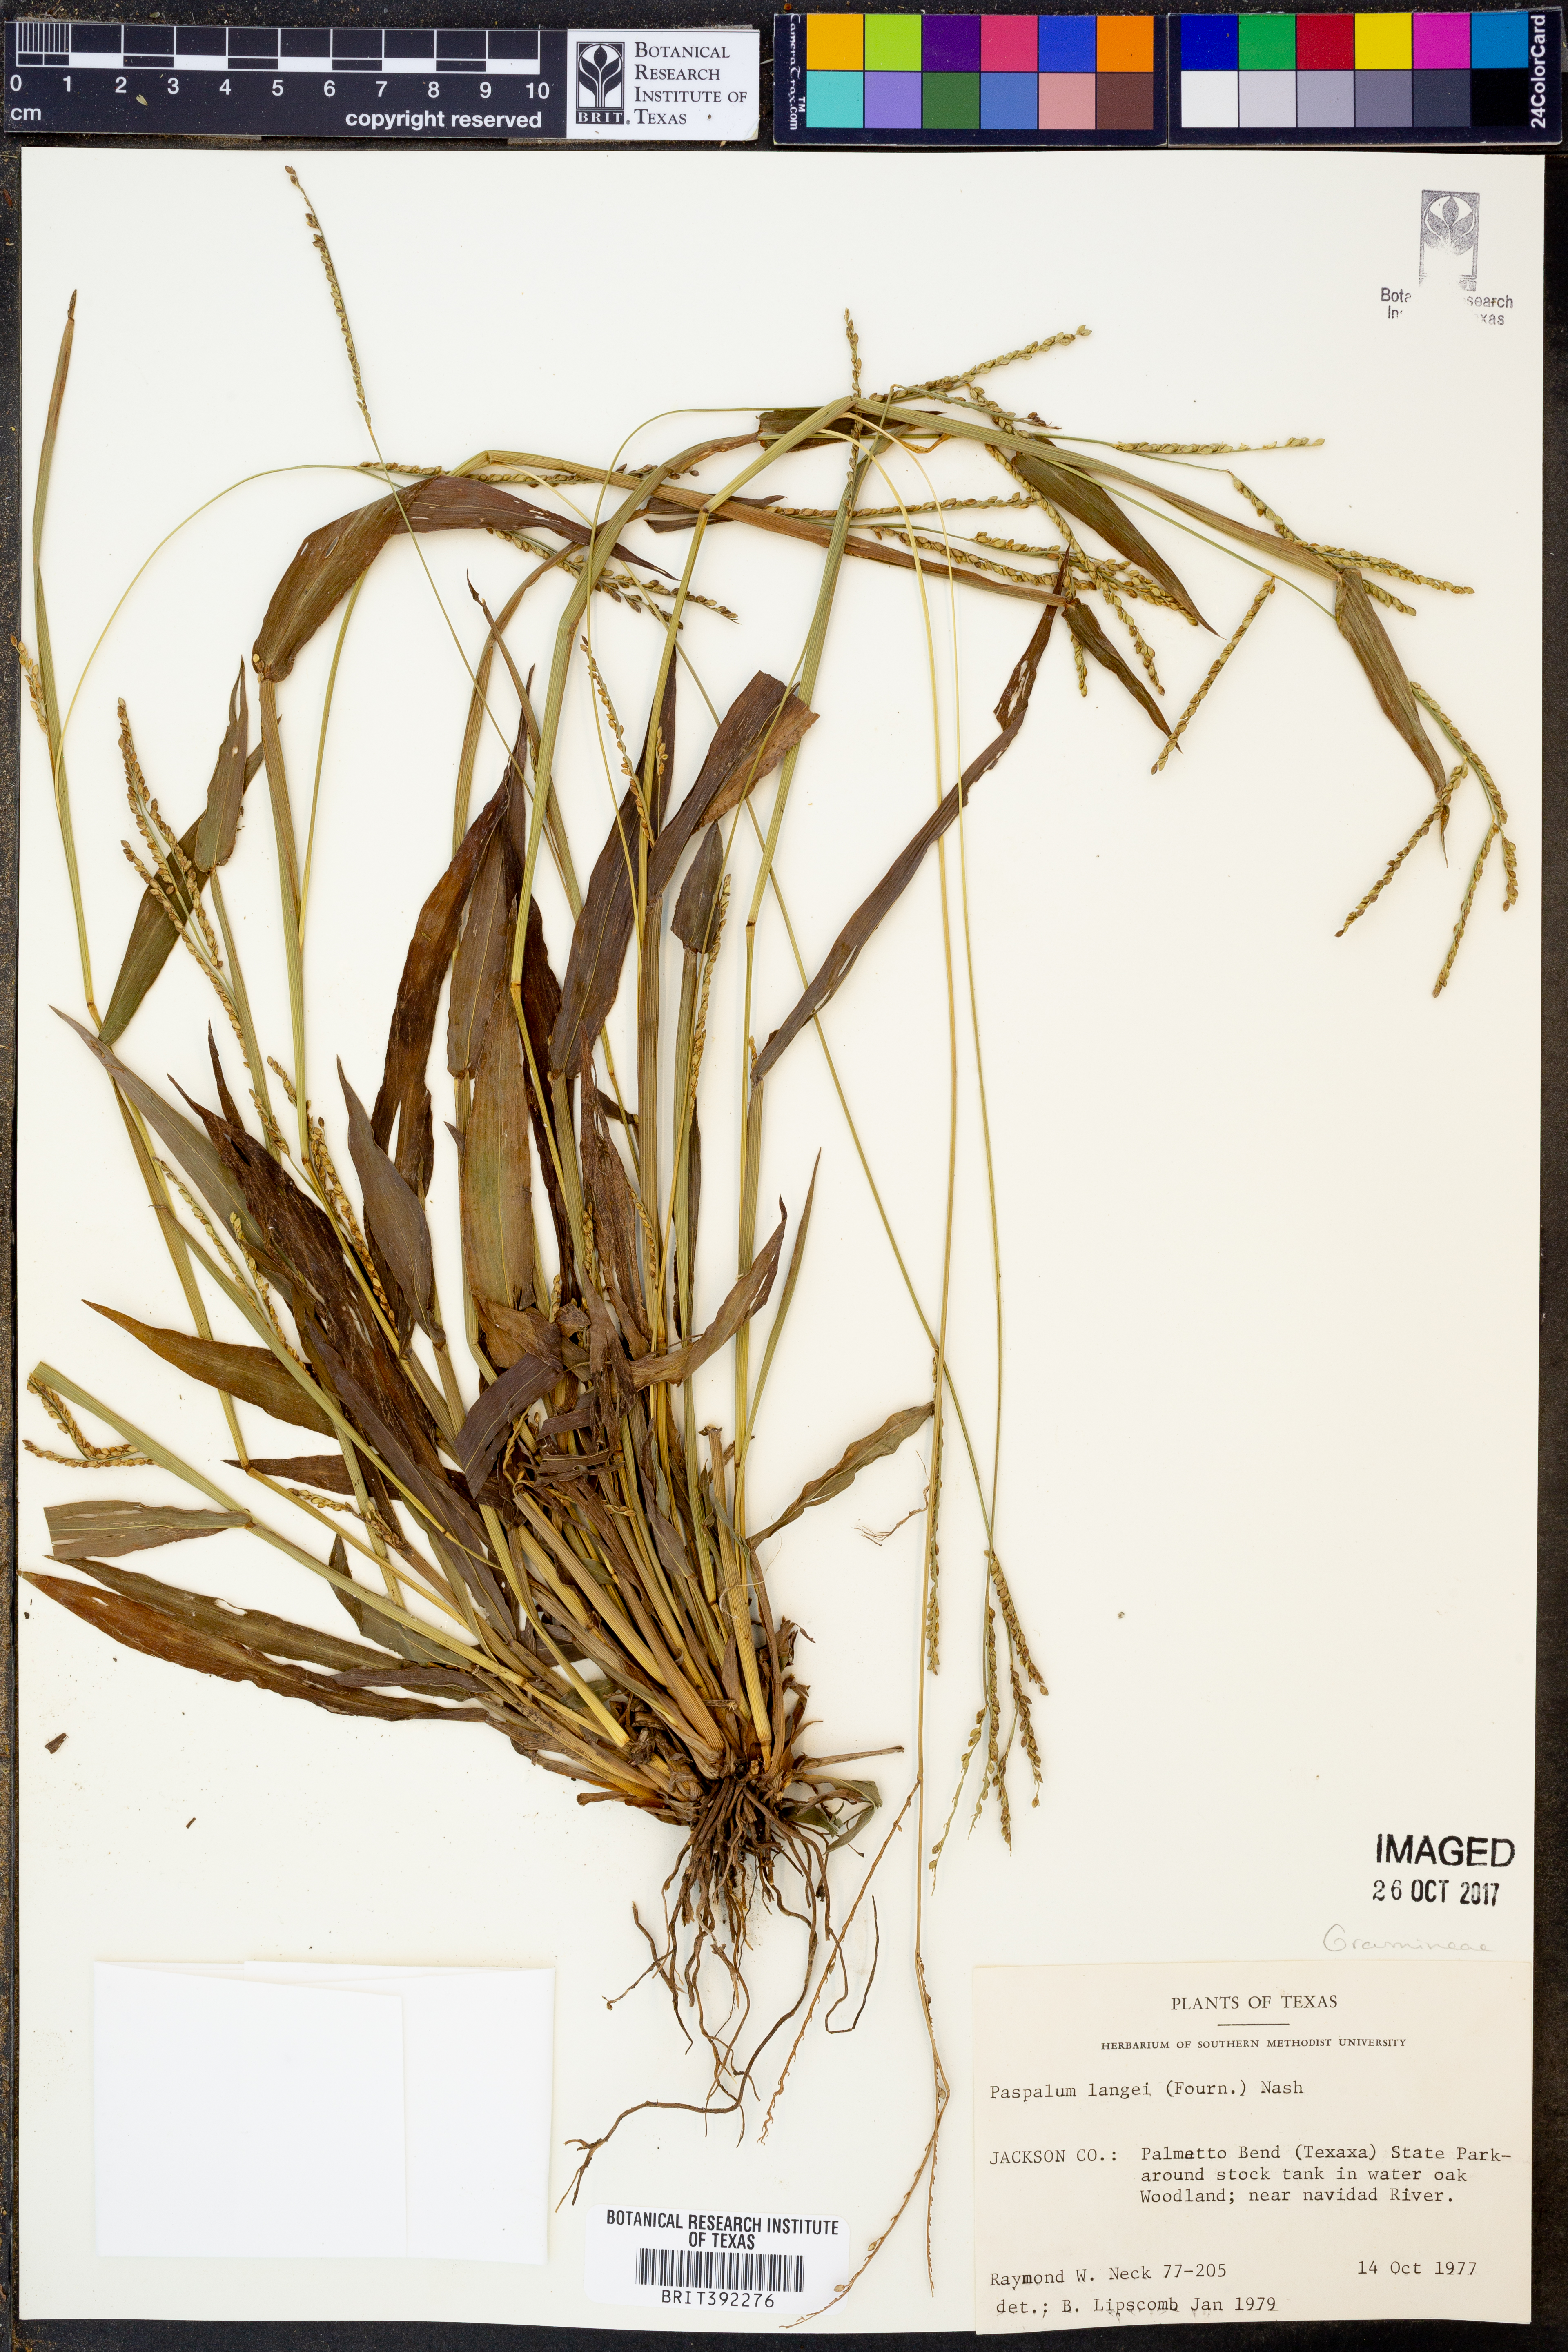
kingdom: Plantae
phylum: Tracheophyta
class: Liliopsida
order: Poales
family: Poaceae
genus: Paspalum
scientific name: Paspalum langei
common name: Rusty-seed paspalum
